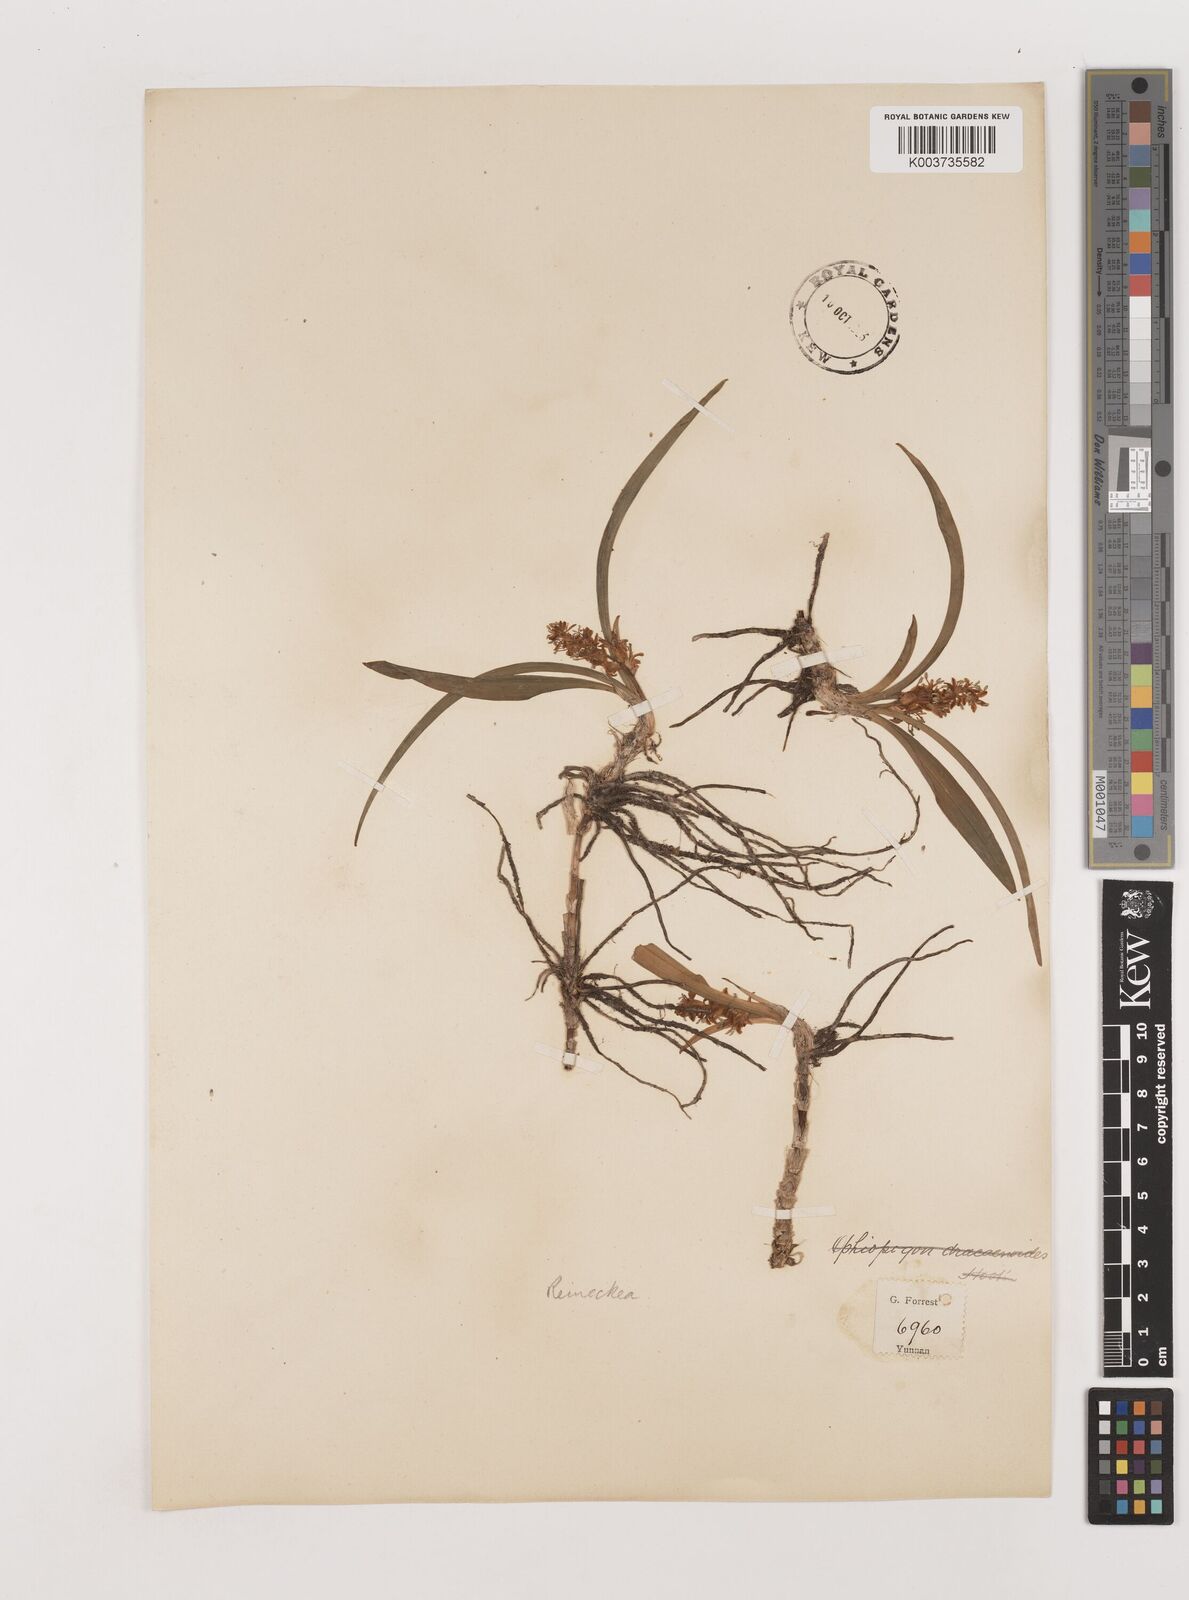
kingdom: Plantae
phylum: Tracheophyta
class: Liliopsida
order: Asparagales
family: Asparagaceae
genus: Reineckea
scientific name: Reineckea carnea
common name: Reineckea
